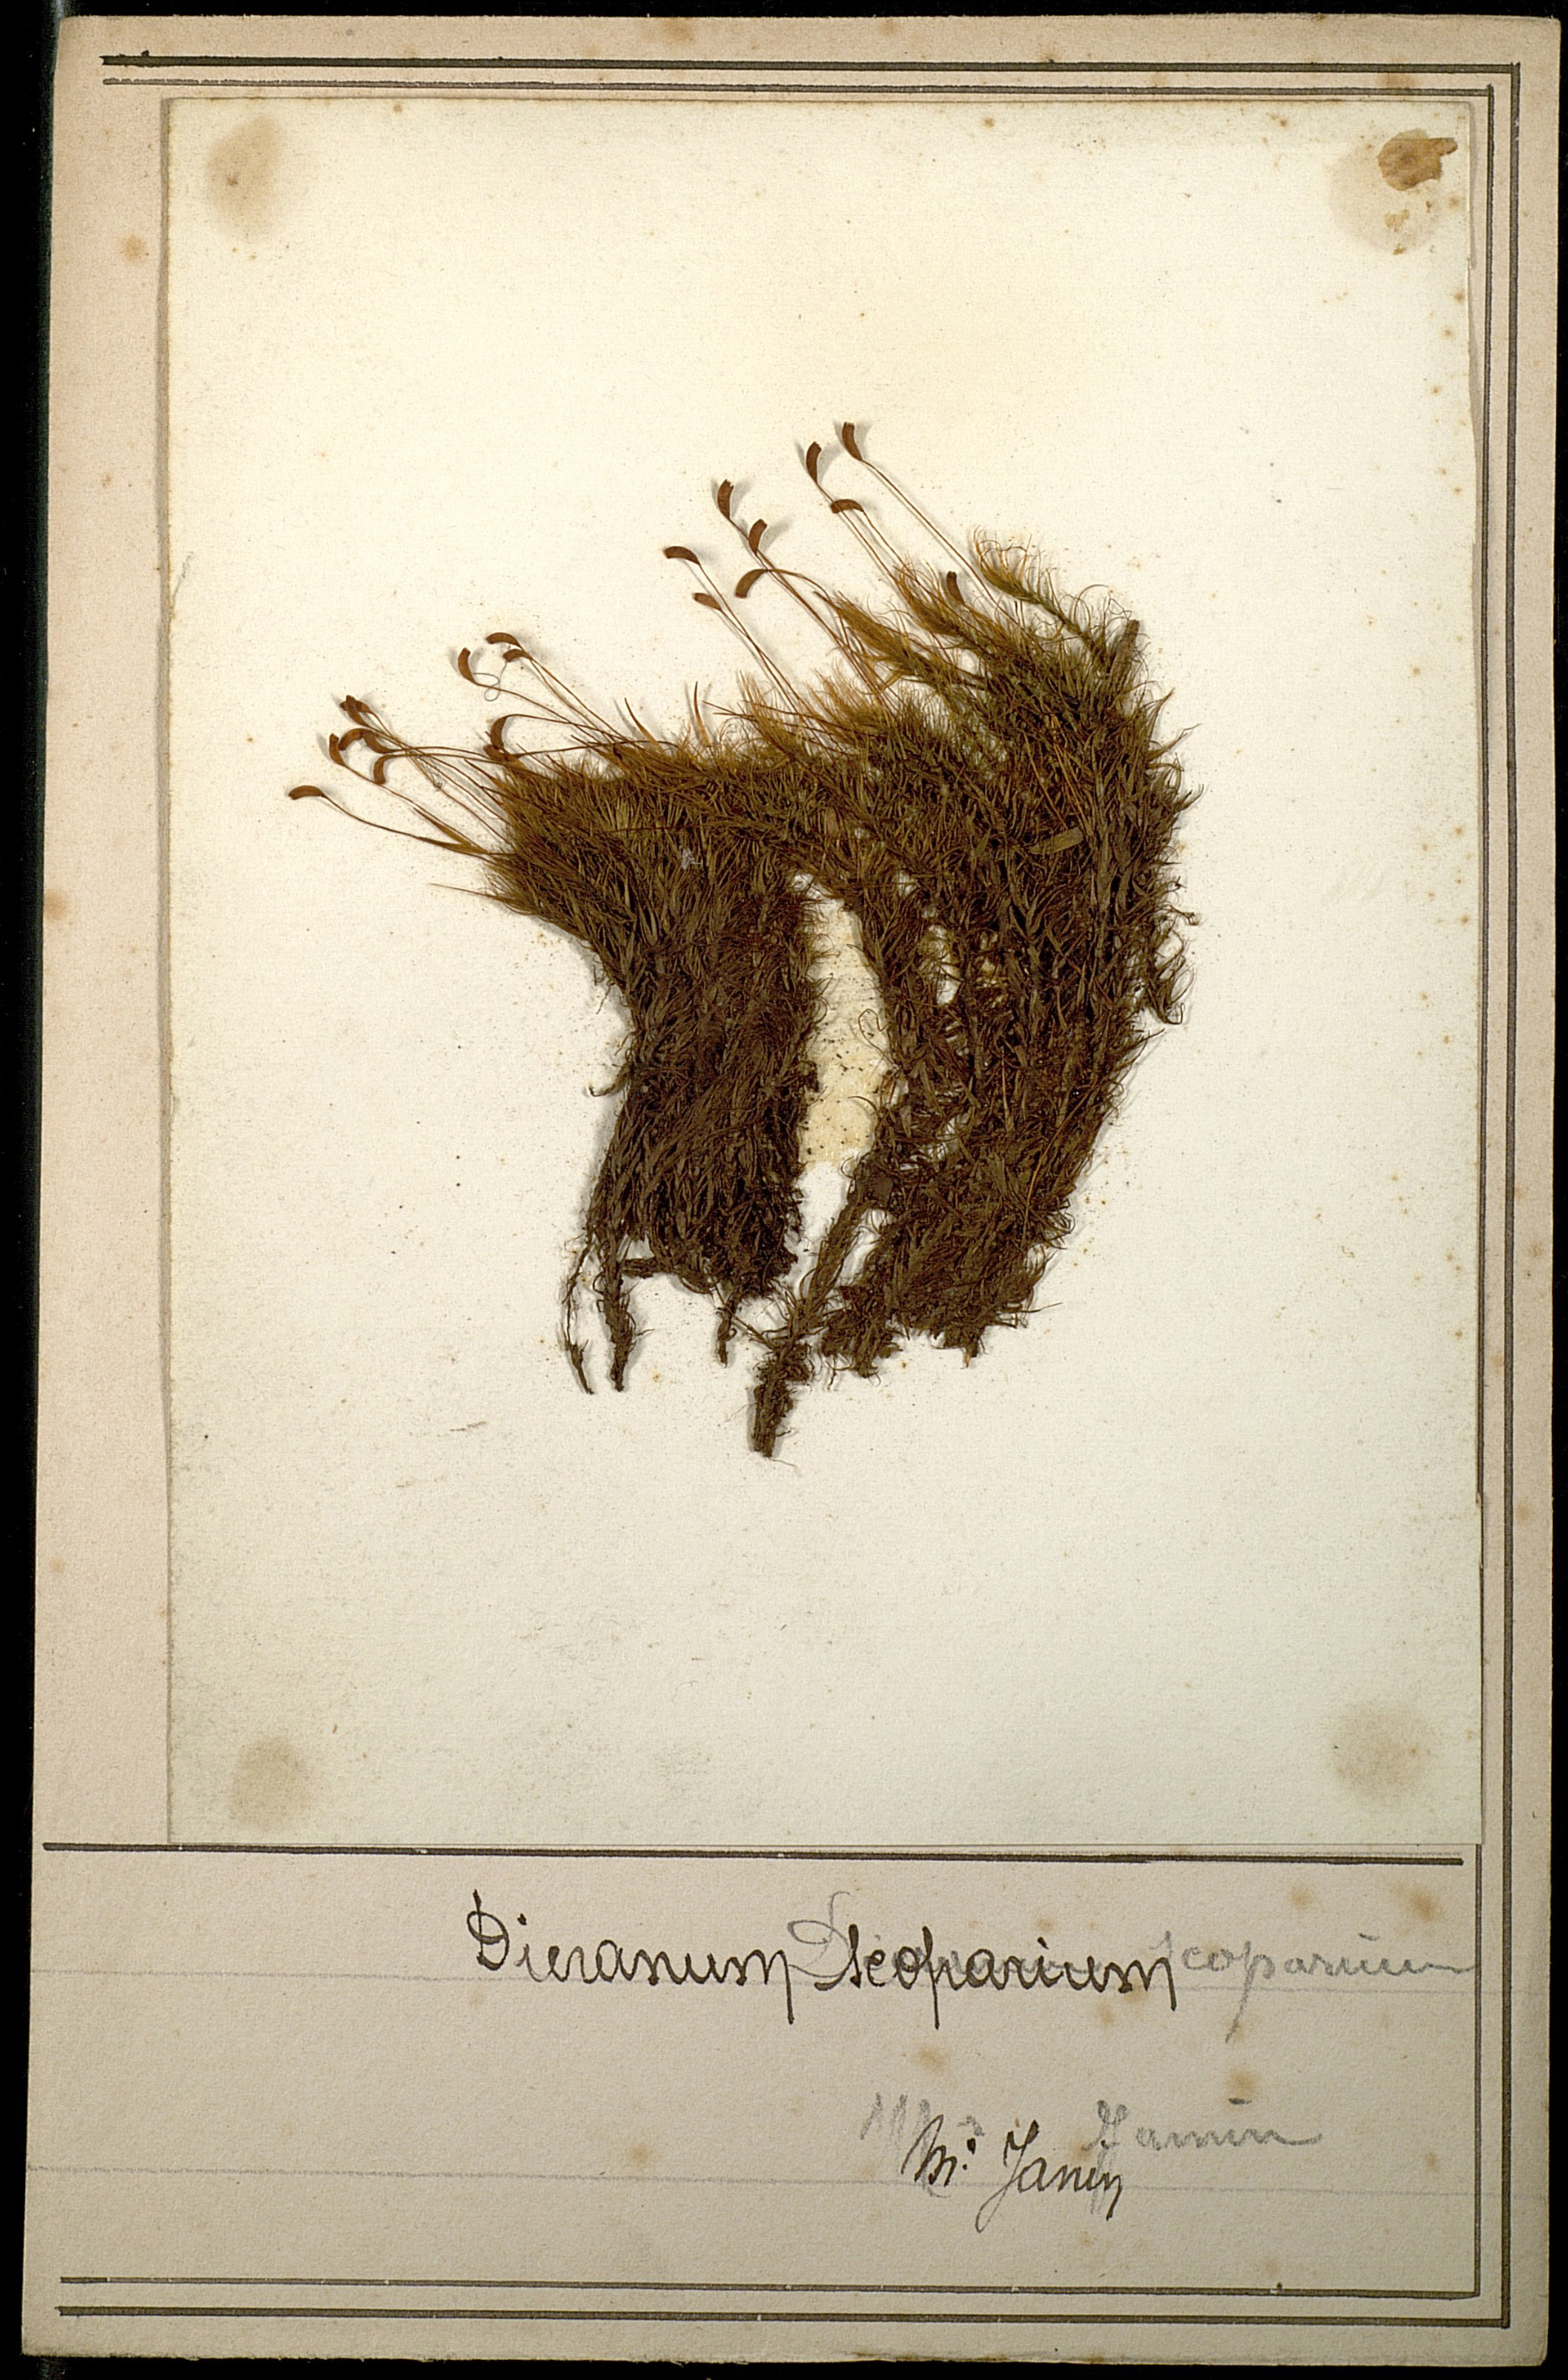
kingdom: Plantae
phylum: Bryophyta
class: Bryopsida
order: Dicranales
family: Dicranaceae
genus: Dicranum
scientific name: Dicranum scoparium
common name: Broom fork-moss
